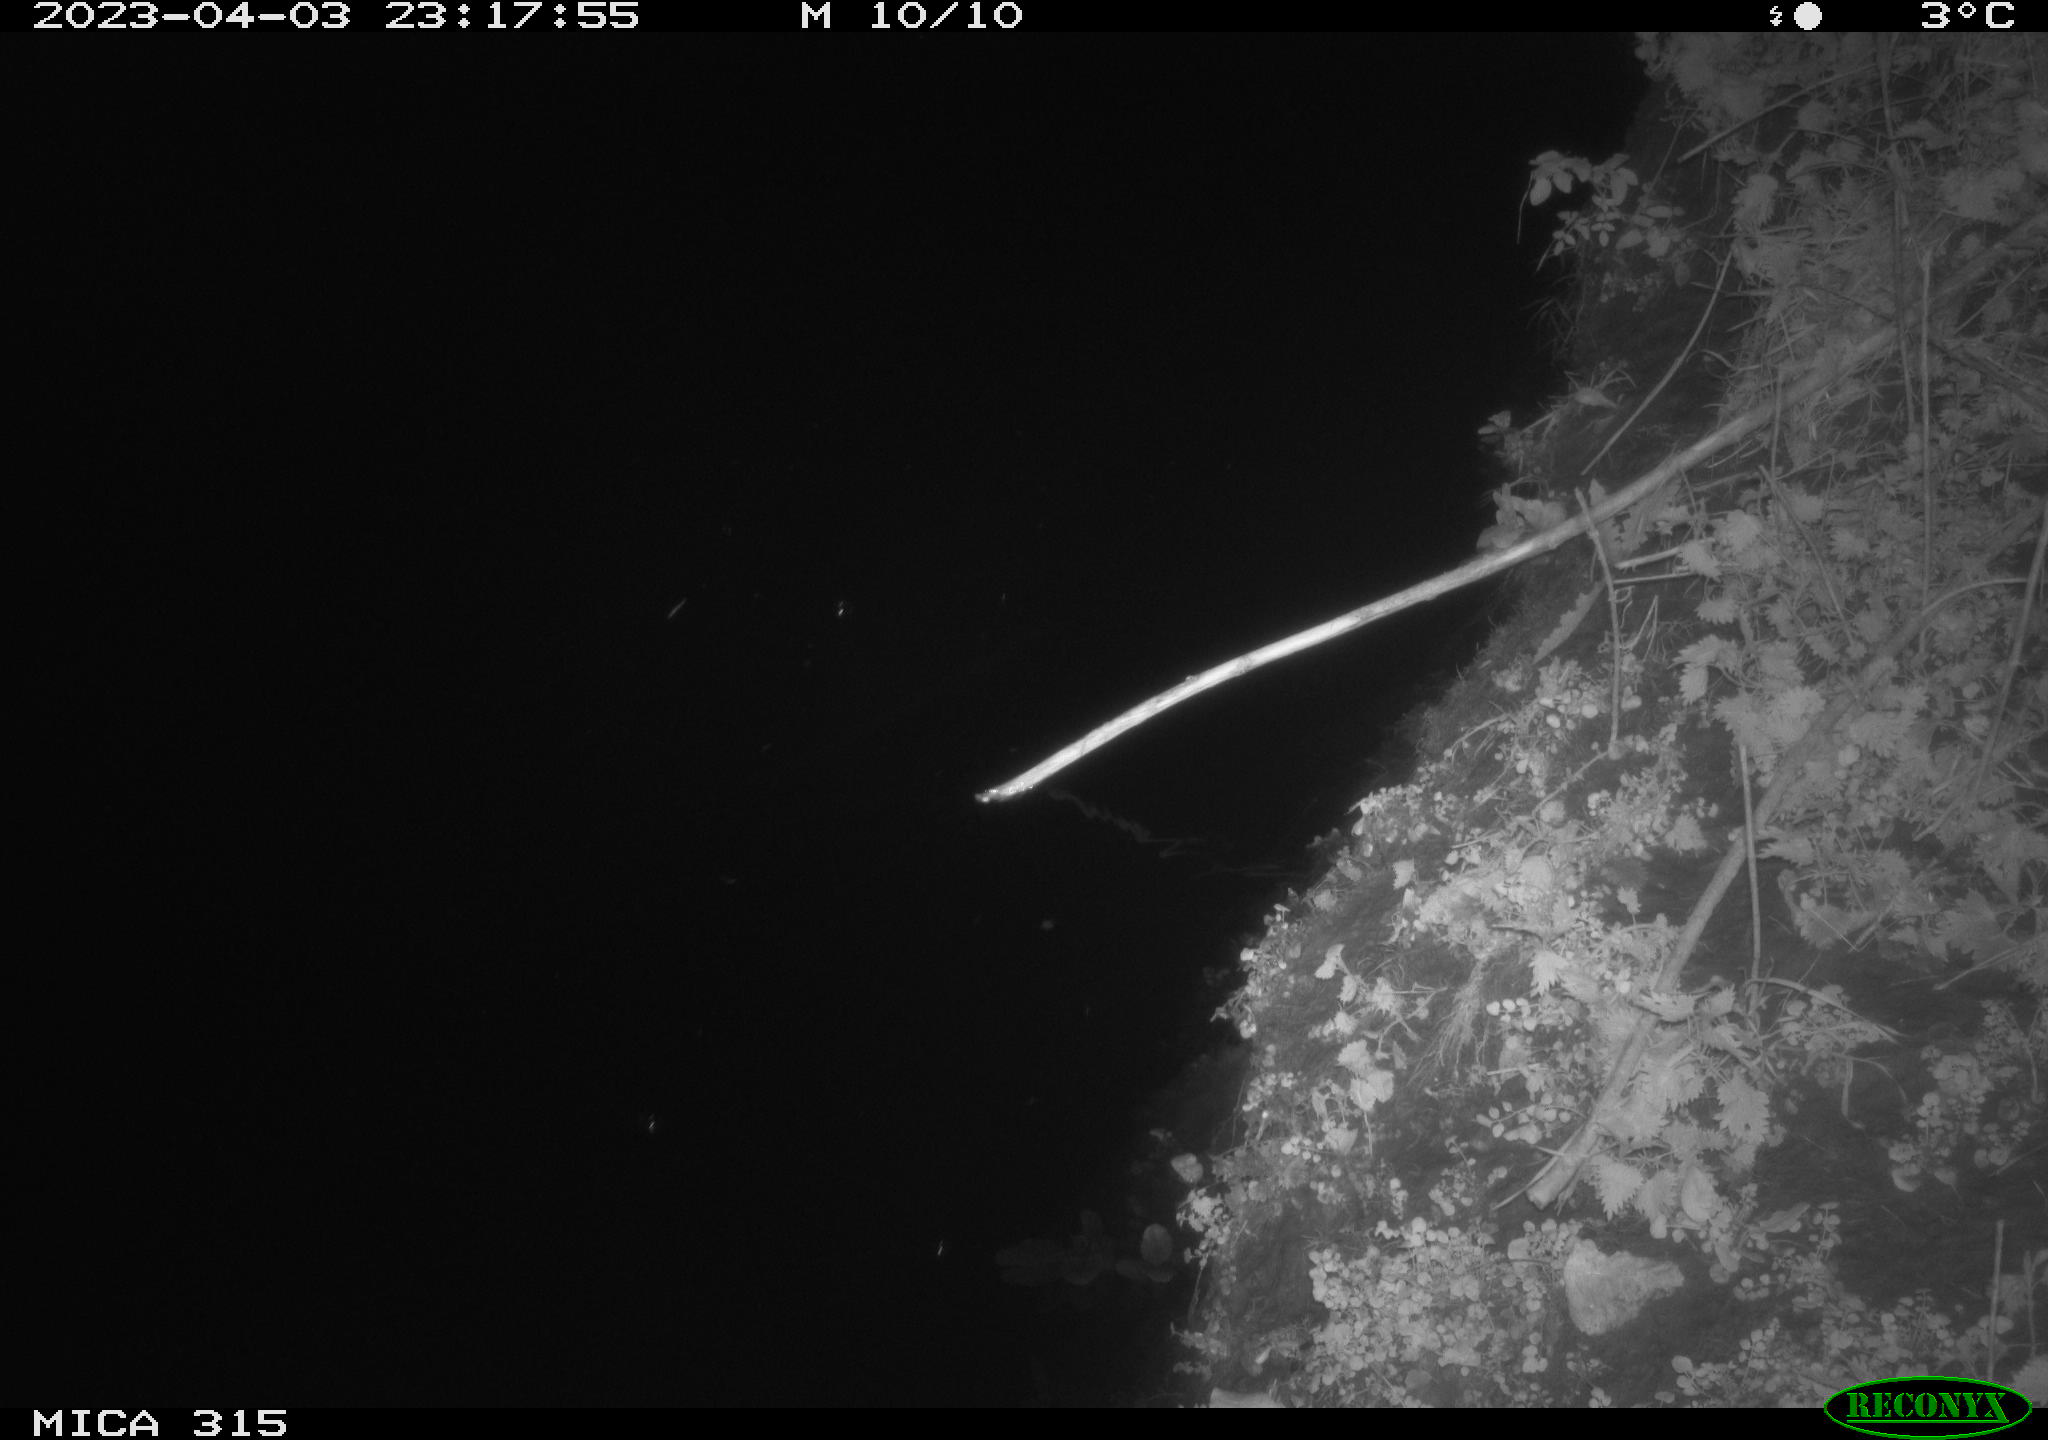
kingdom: Animalia
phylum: Chordata
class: Aves
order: Anseriformes
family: Anatidae
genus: Anas
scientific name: Anas
